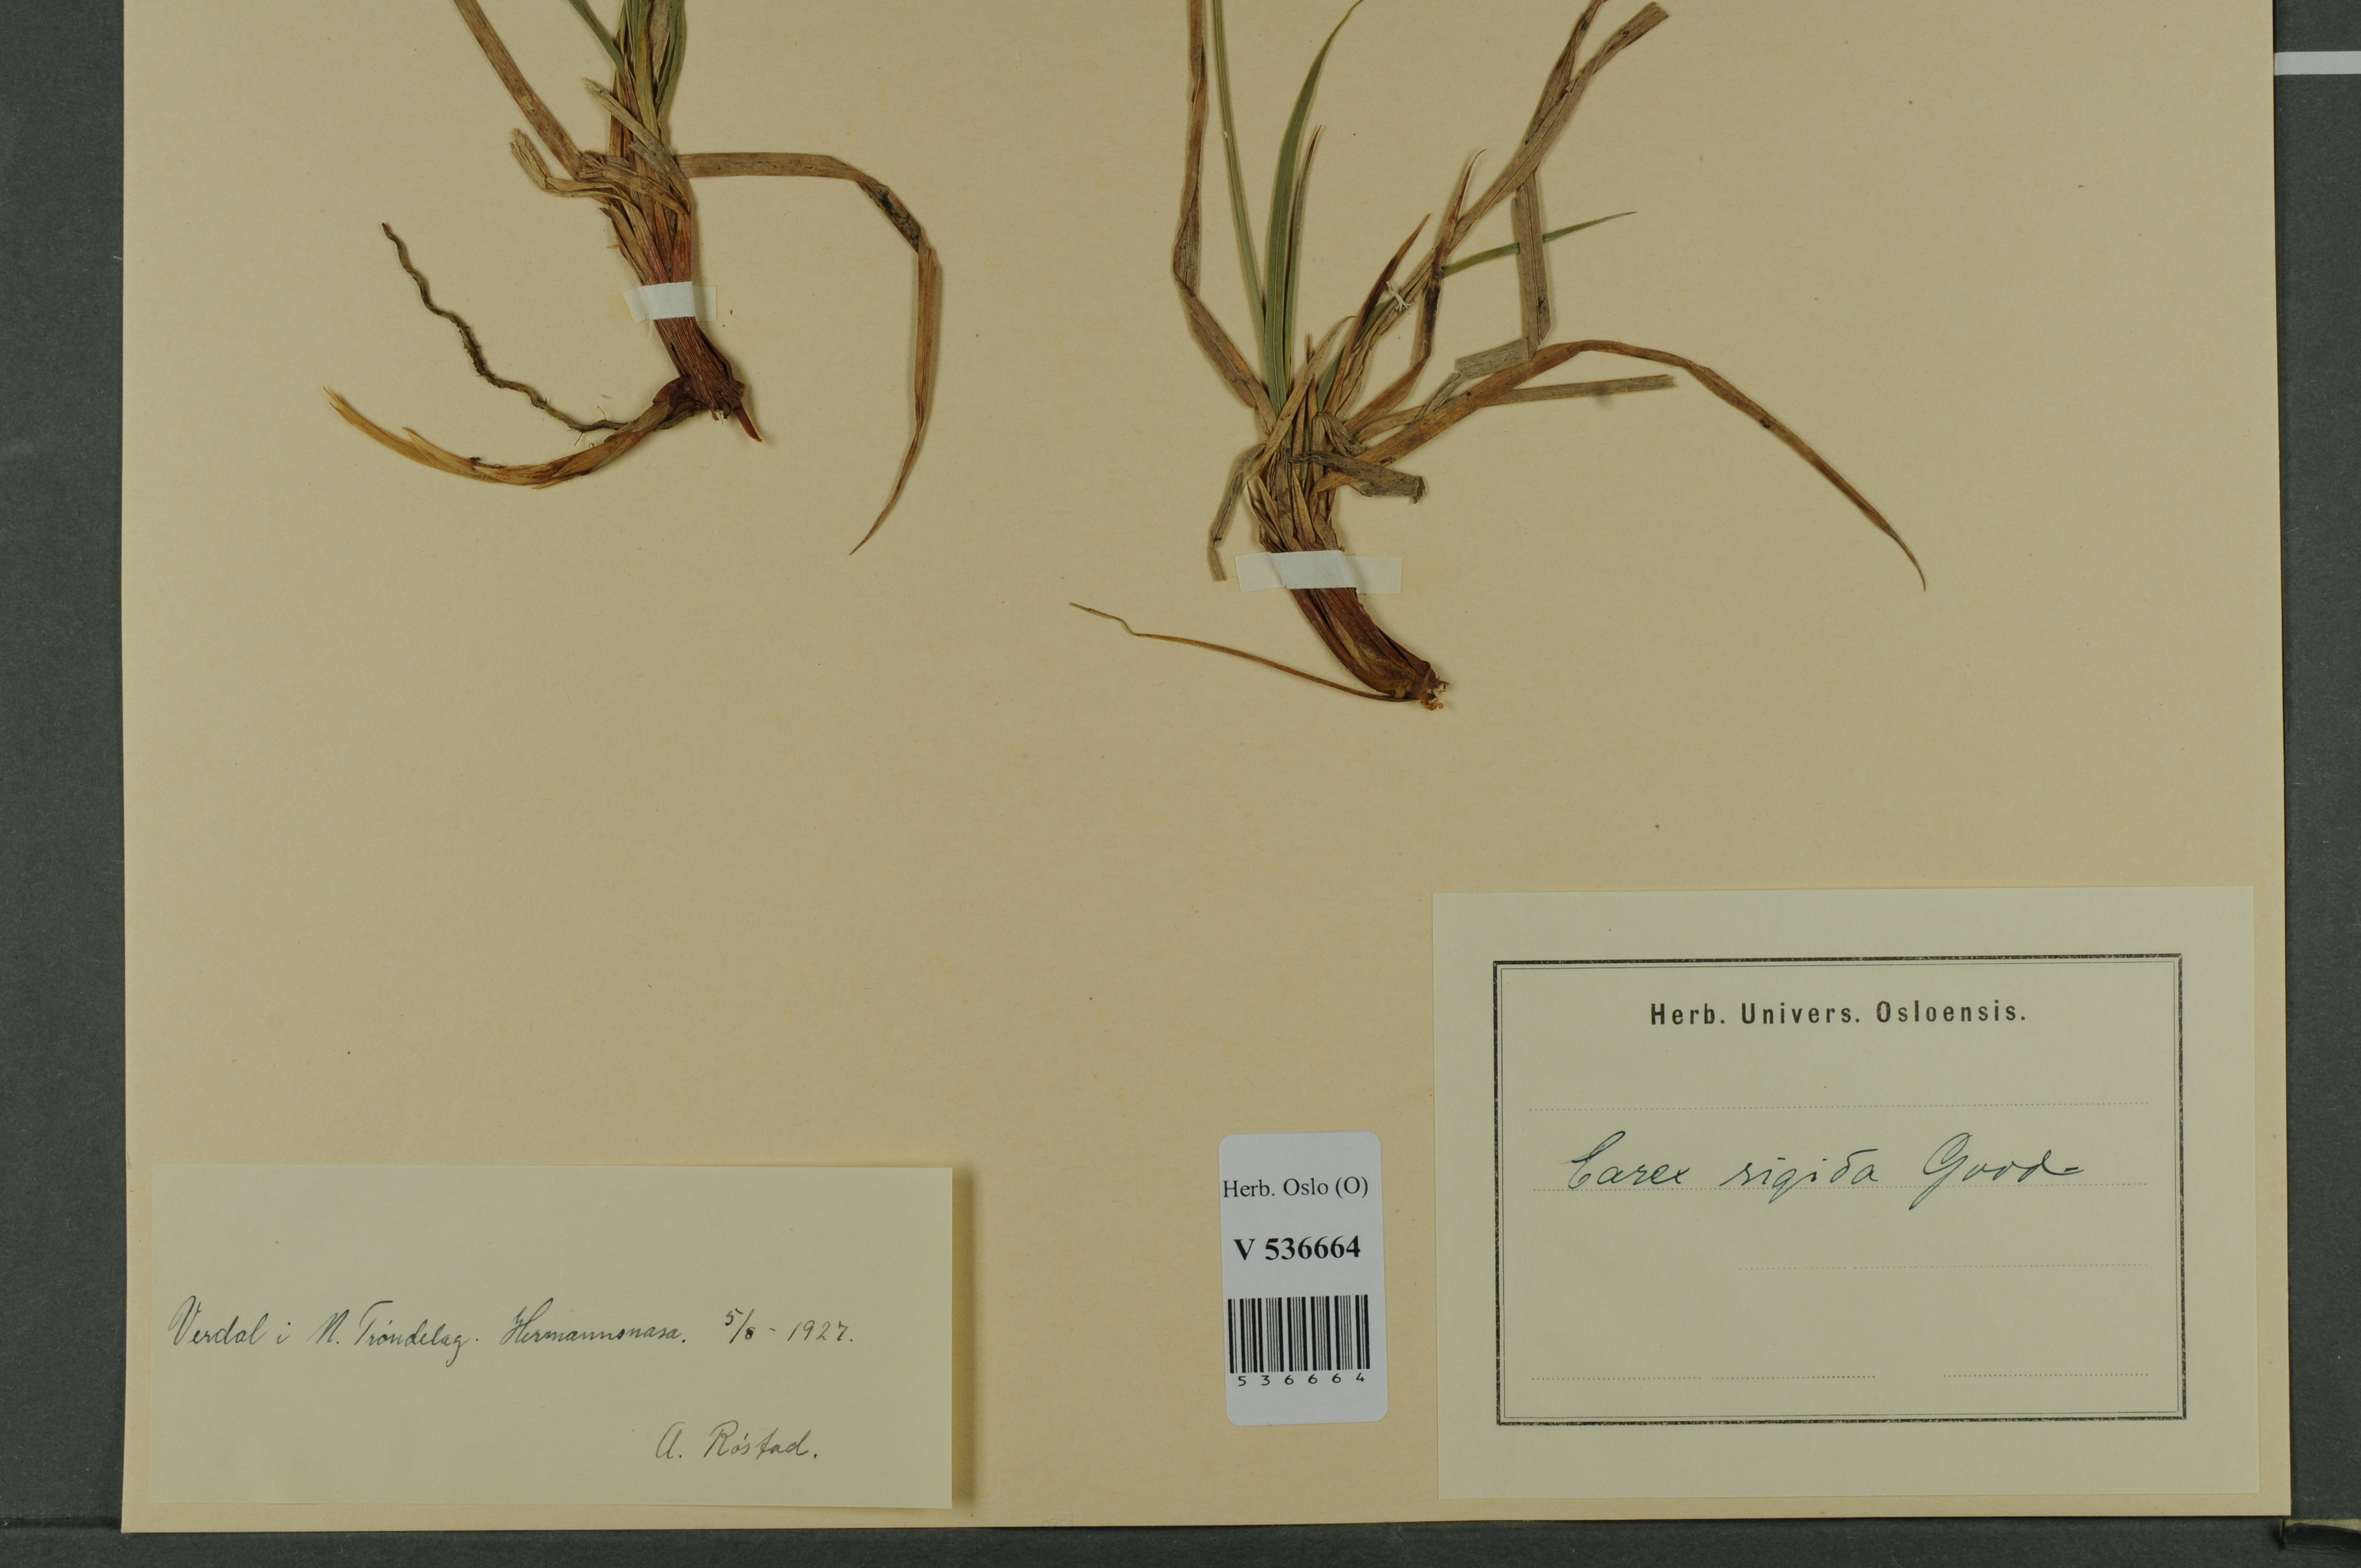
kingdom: Plantae
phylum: Tracheophyta
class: Liliopsida
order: Poales
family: Cyperaceae
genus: Carex
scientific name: Carex dacica
